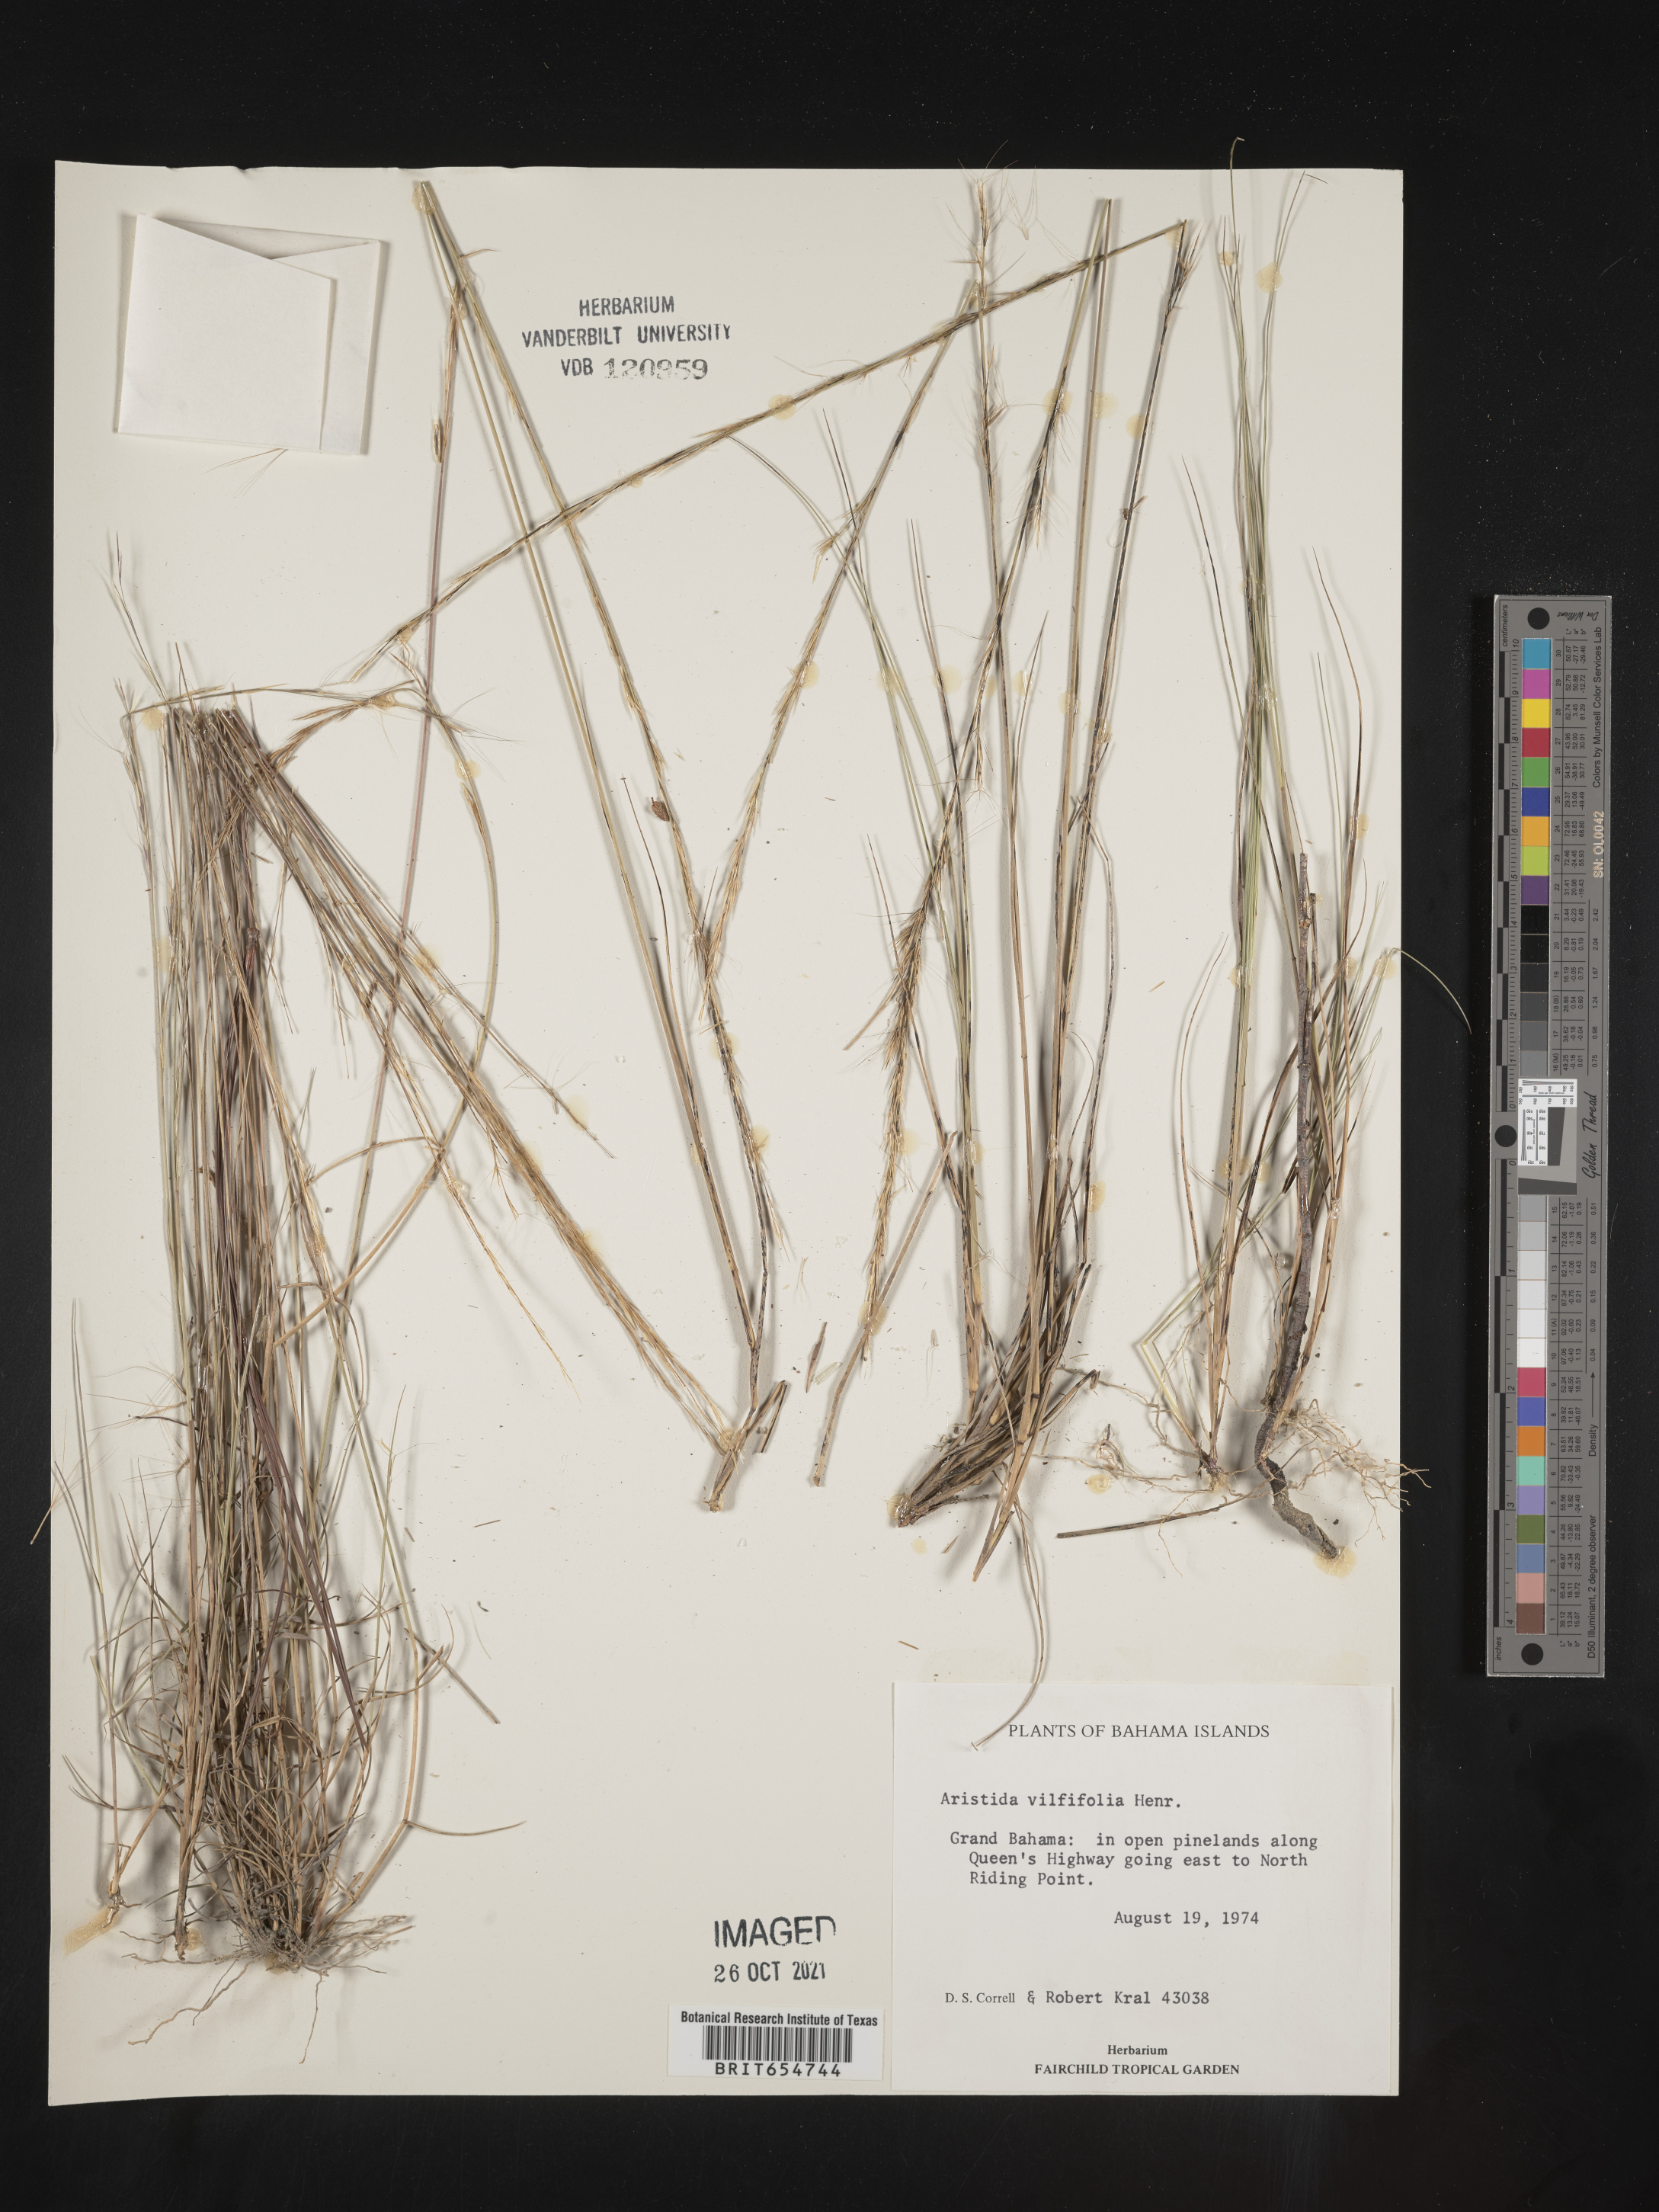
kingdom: Plantae
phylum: Tracheophyta
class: Liliopsida
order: Poales
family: Poaceae
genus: Aristida
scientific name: Aristida
